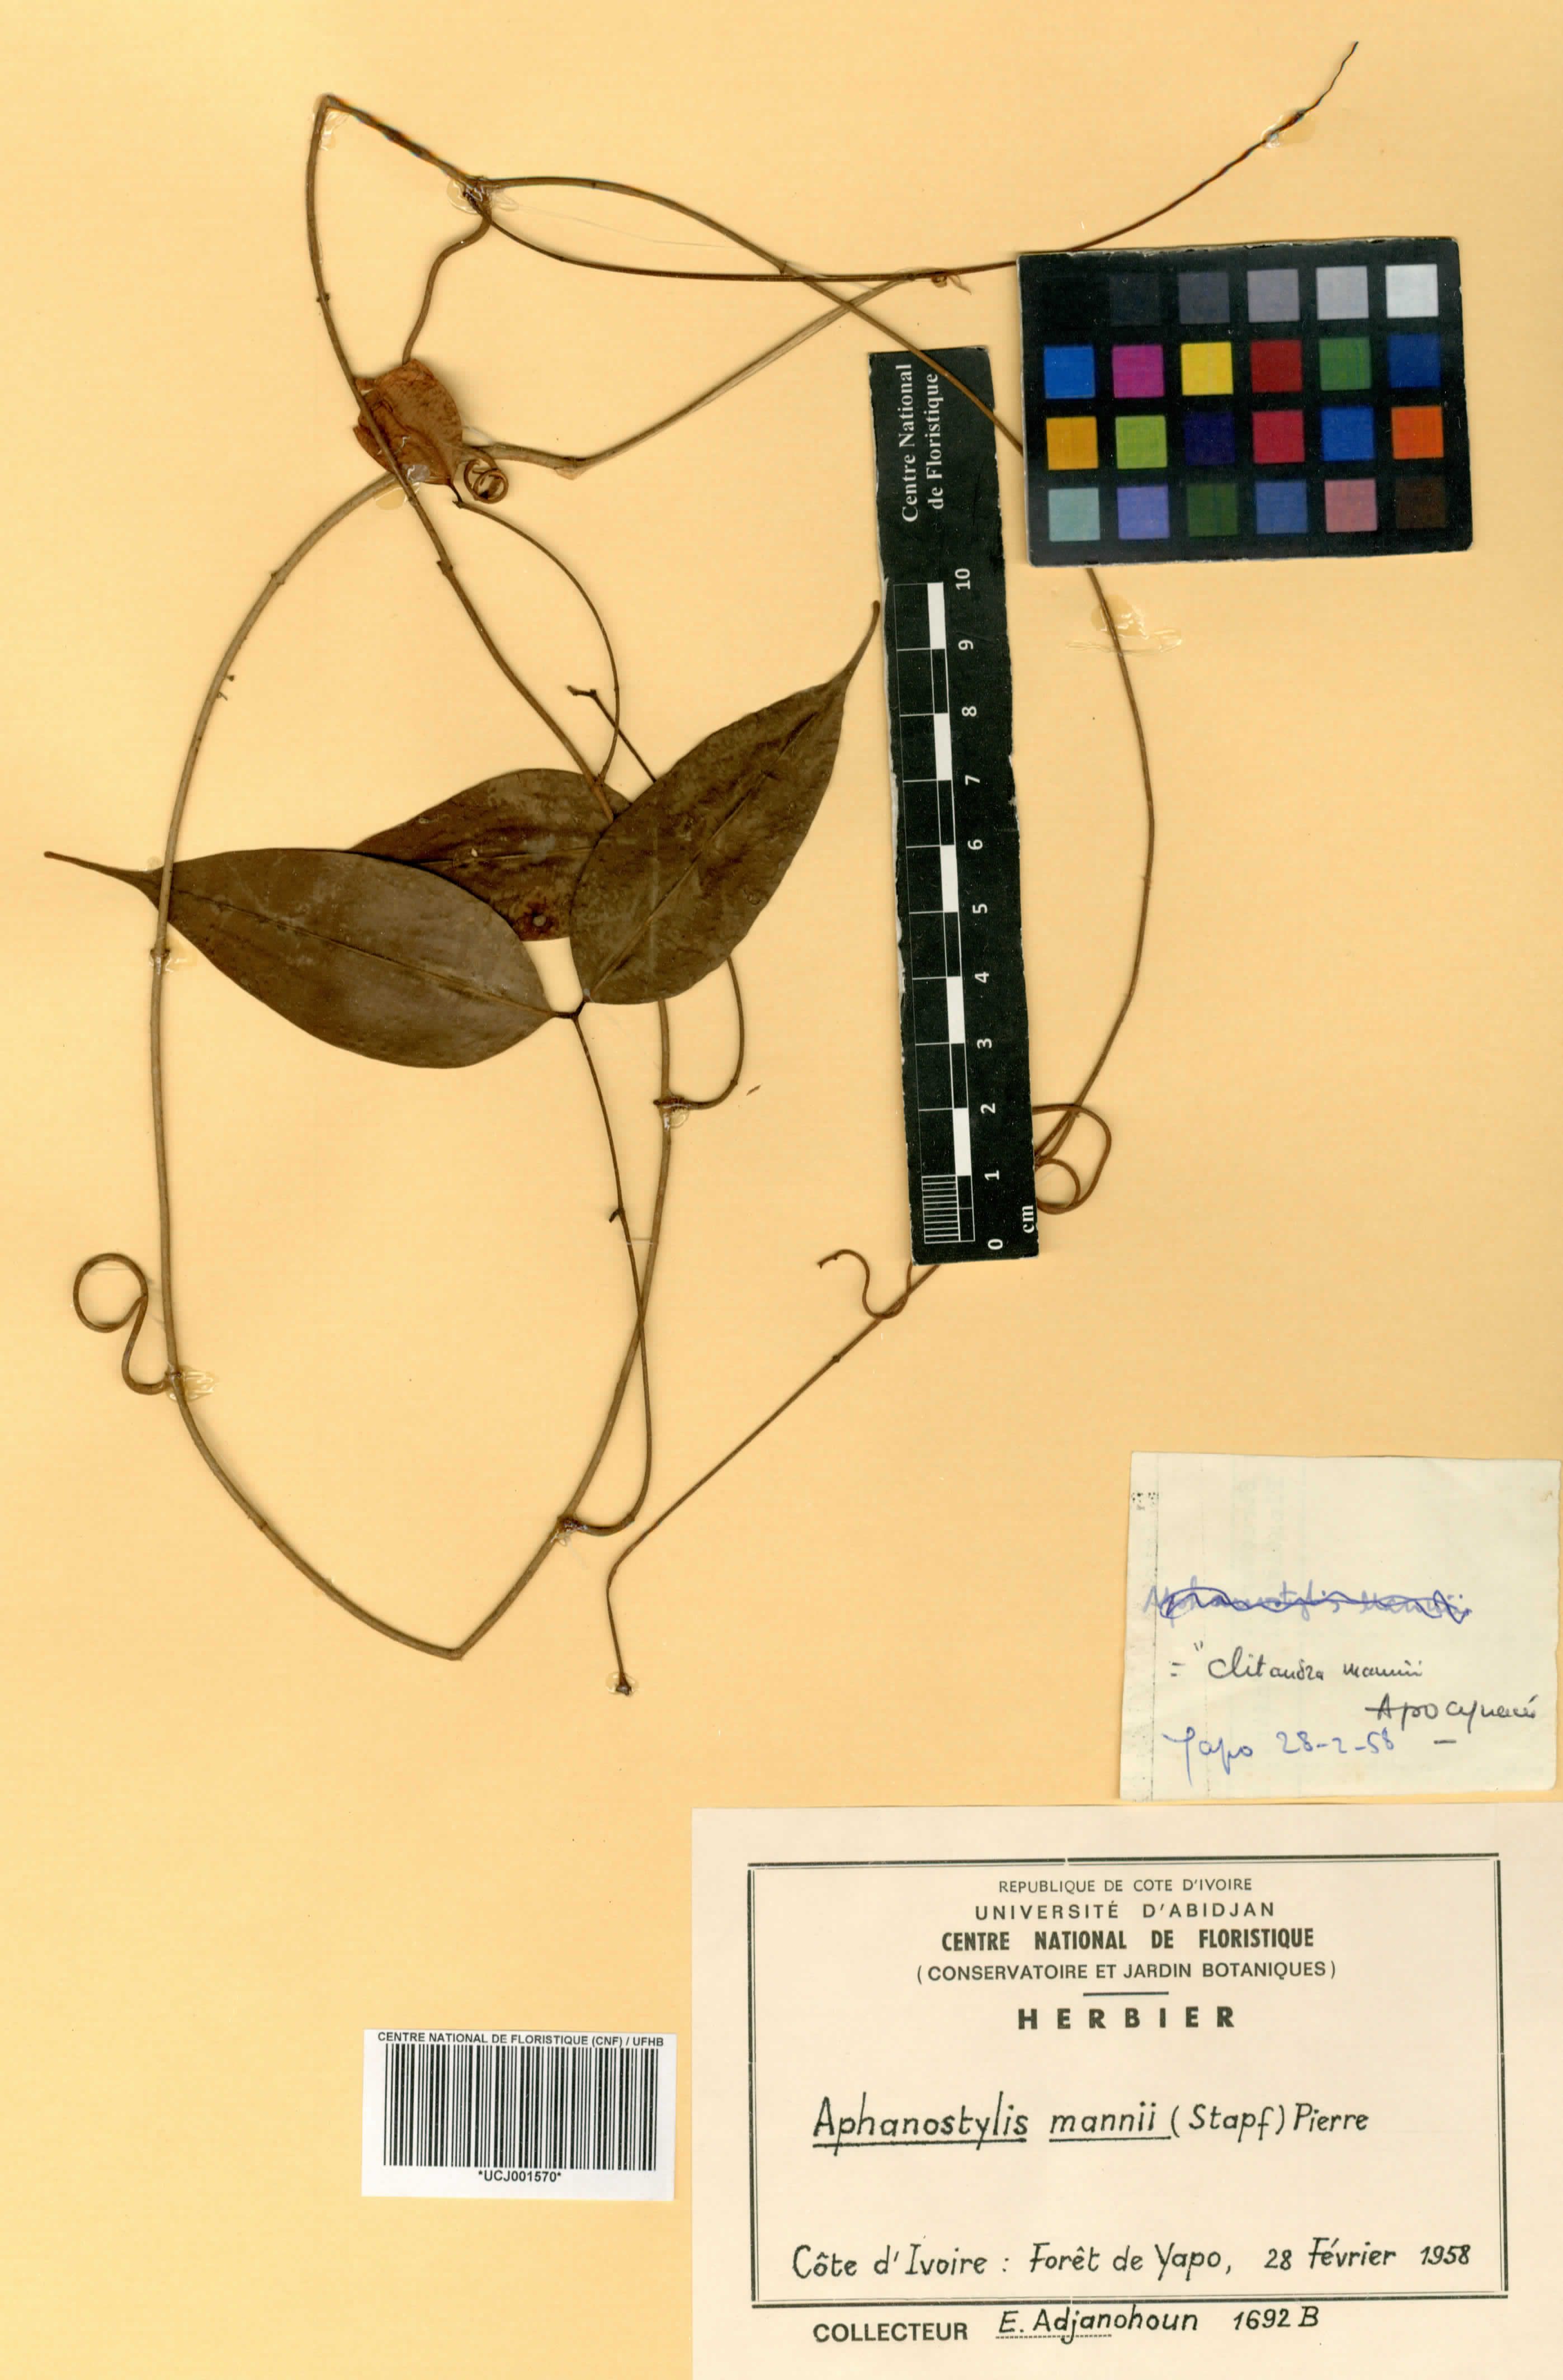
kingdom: Plantae
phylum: Tracheophyta
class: Magnoliopsida
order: Gentianales
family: Apocynaceae
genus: Landolphia
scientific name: Landolphia incerta
